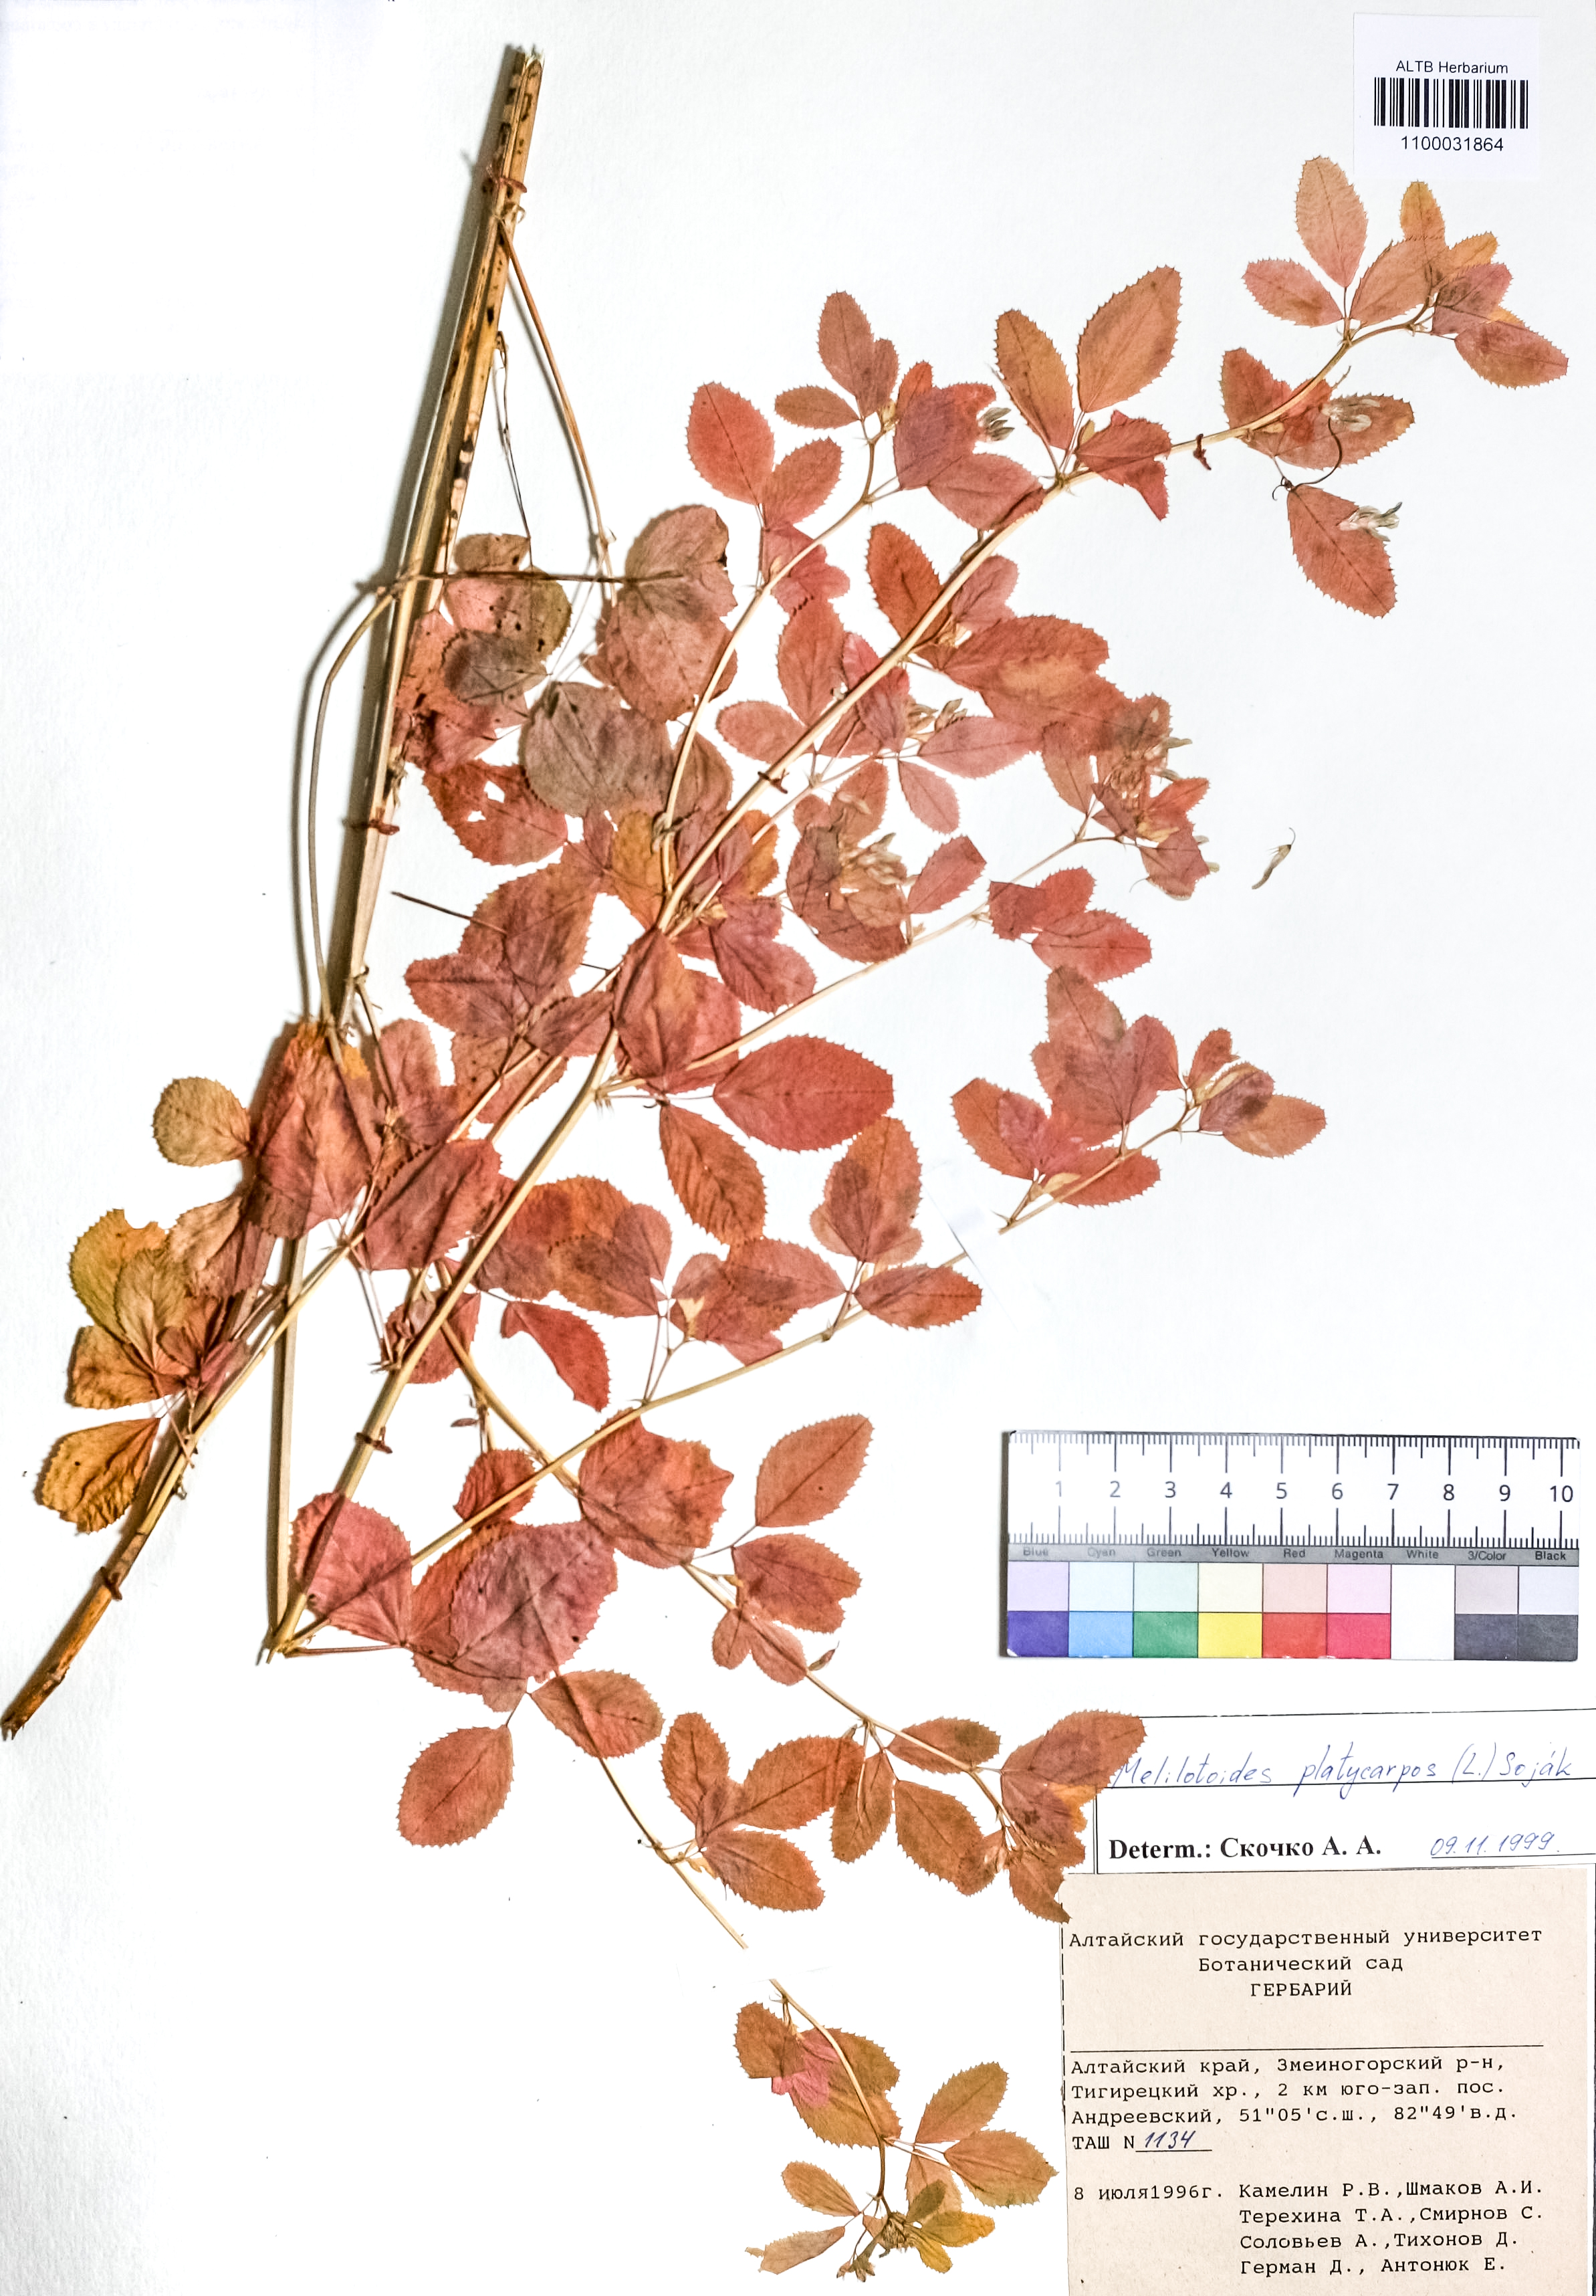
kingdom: Plantae
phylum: Tracheophyta
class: Magnoliopsida
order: Fabales
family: Fabaceae
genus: Medicago
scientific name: Medicago platycarpos
